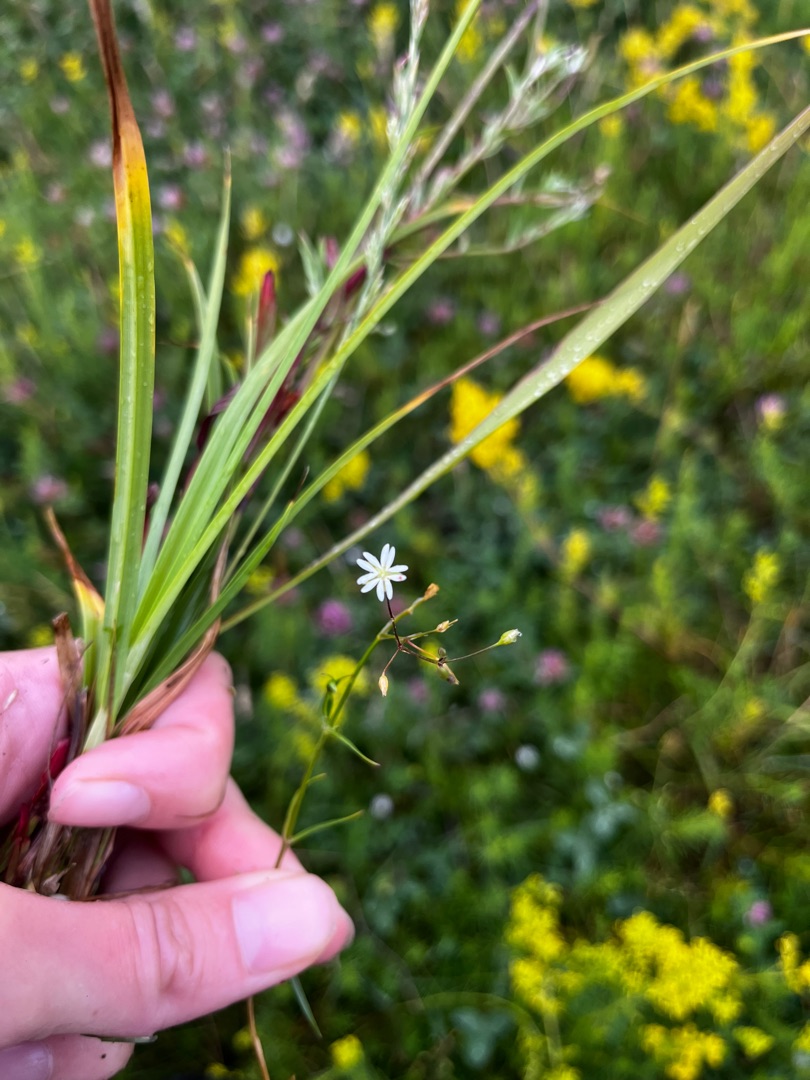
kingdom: Plantae
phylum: Tracheophyta
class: Magnoliopsida
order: Caryophyllales
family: Caryophyllaceae
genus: Stellaria
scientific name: Stellaria graminea
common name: Græsbladet fladstjerne
